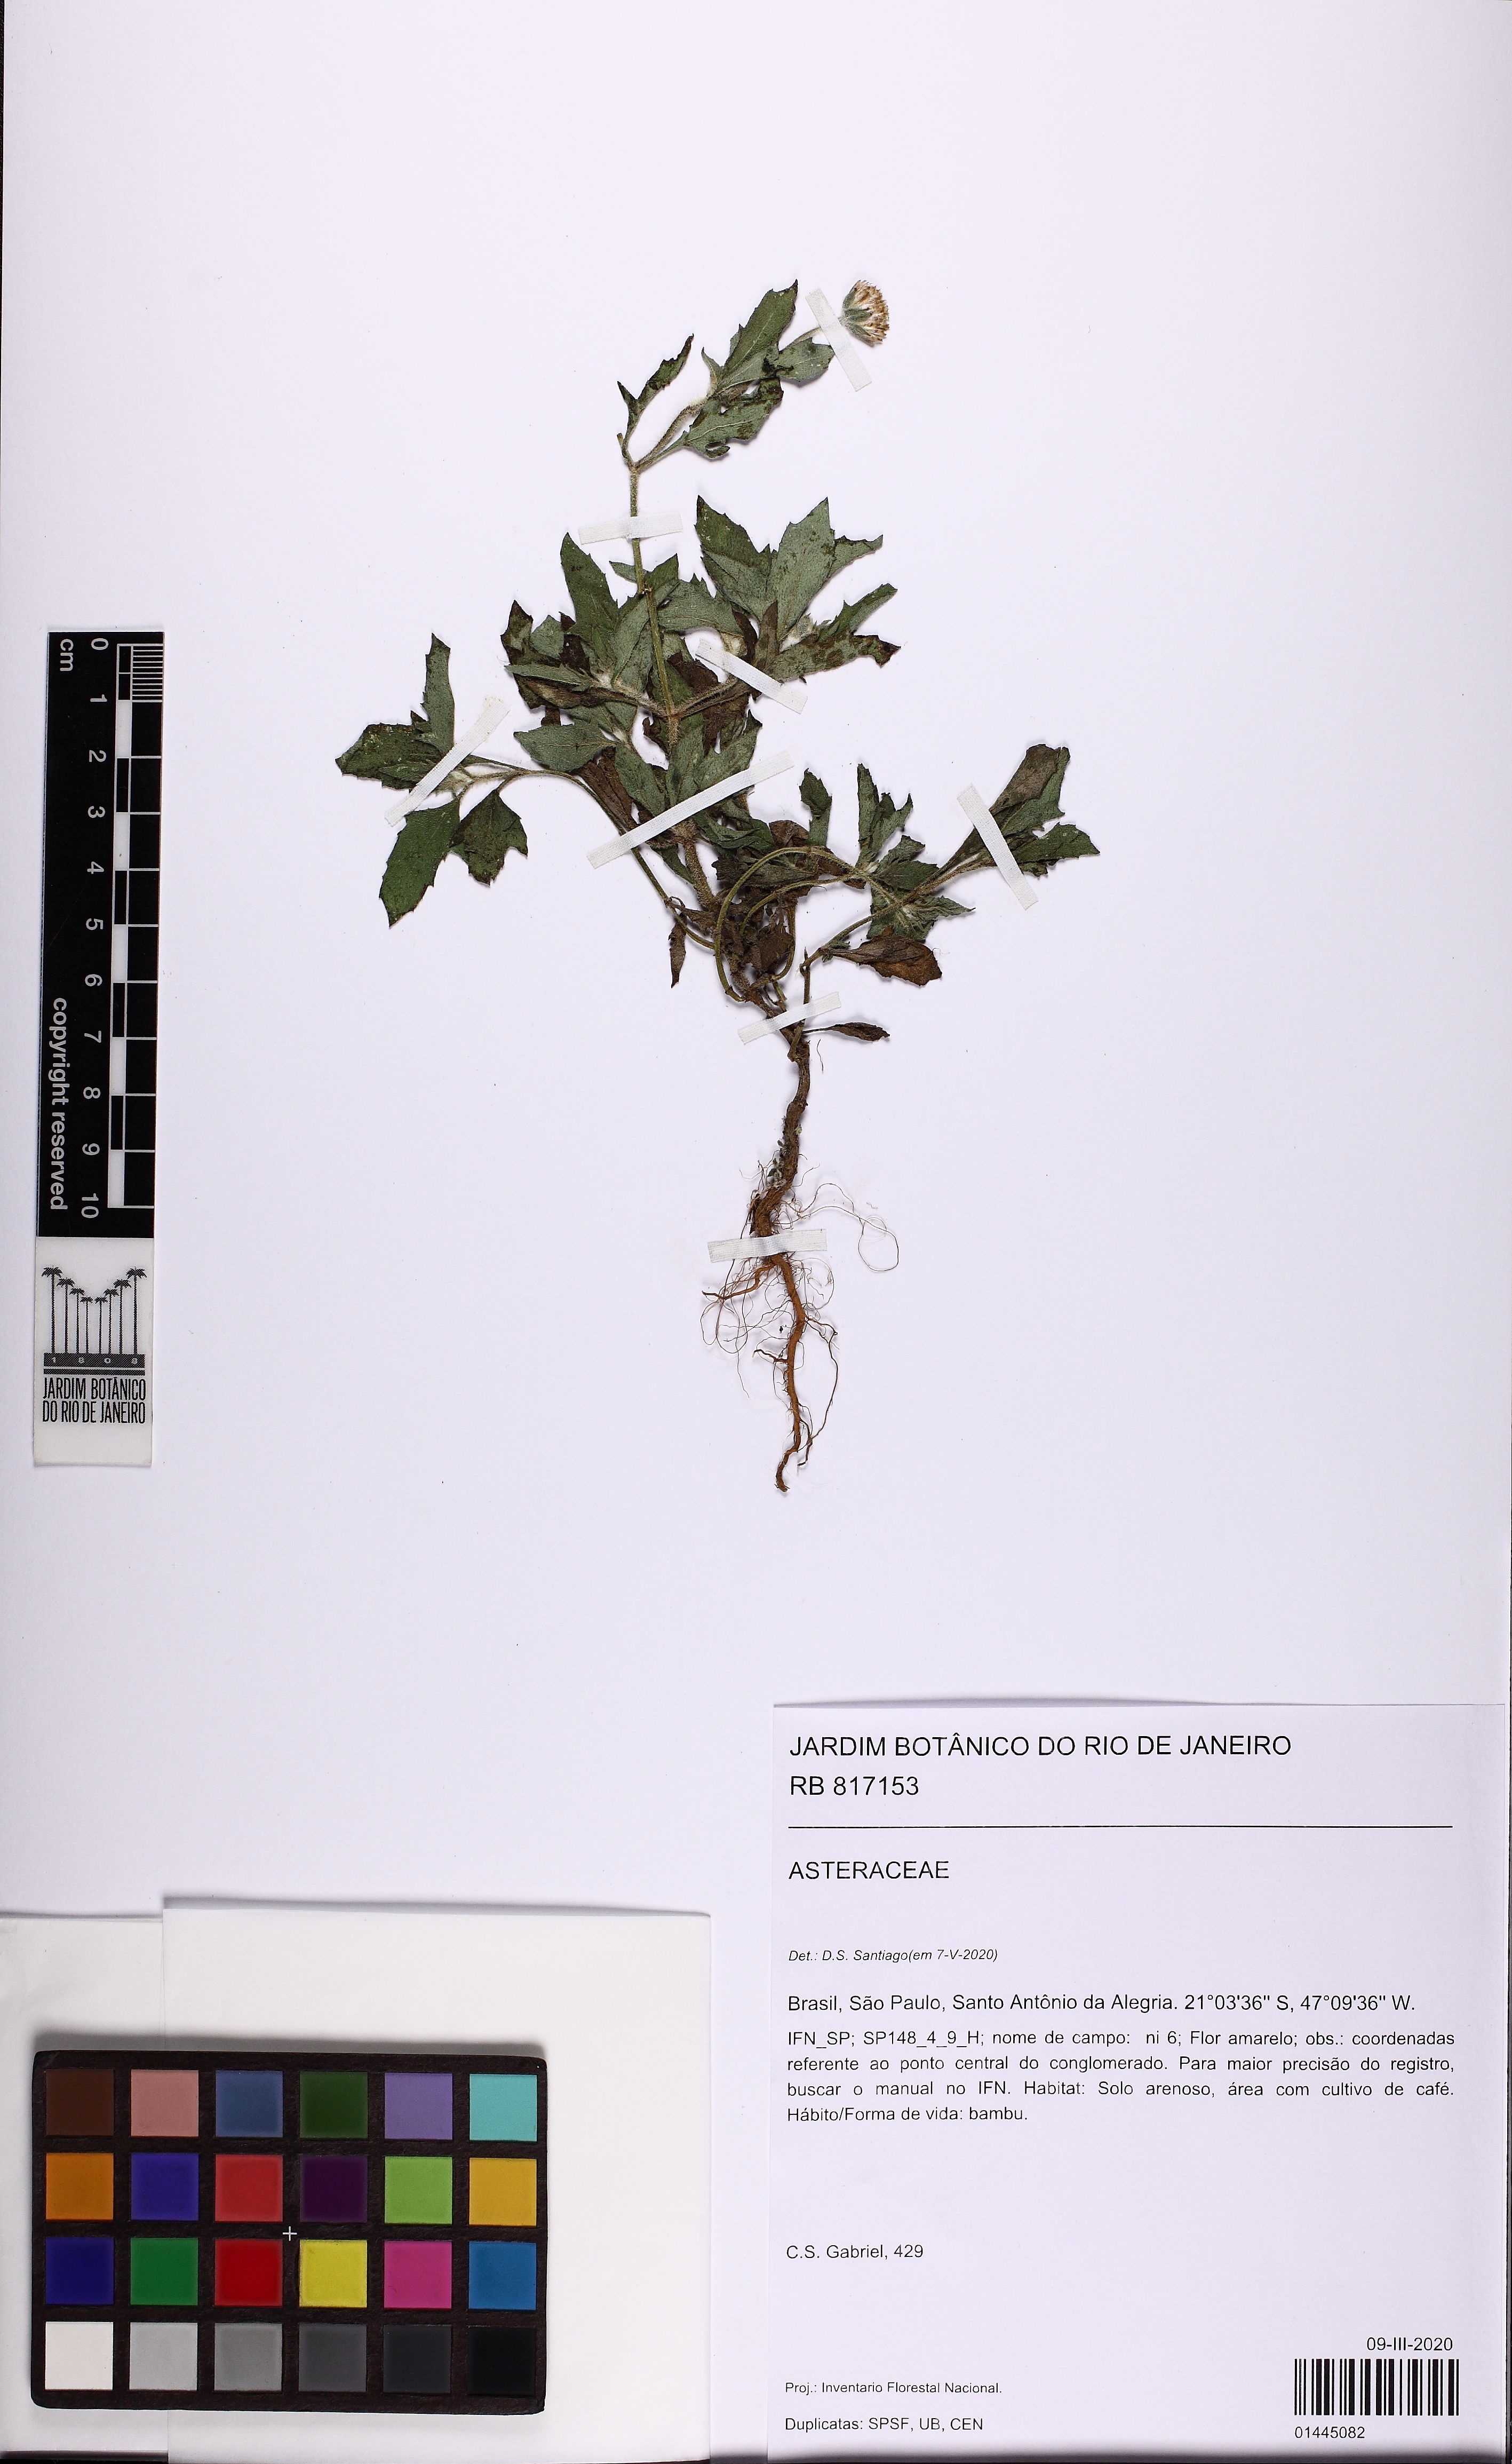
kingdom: Plantae
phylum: Tracheophyta
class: Magnoliopsida
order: Asterales
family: Asteraceae
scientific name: Asteraceae
